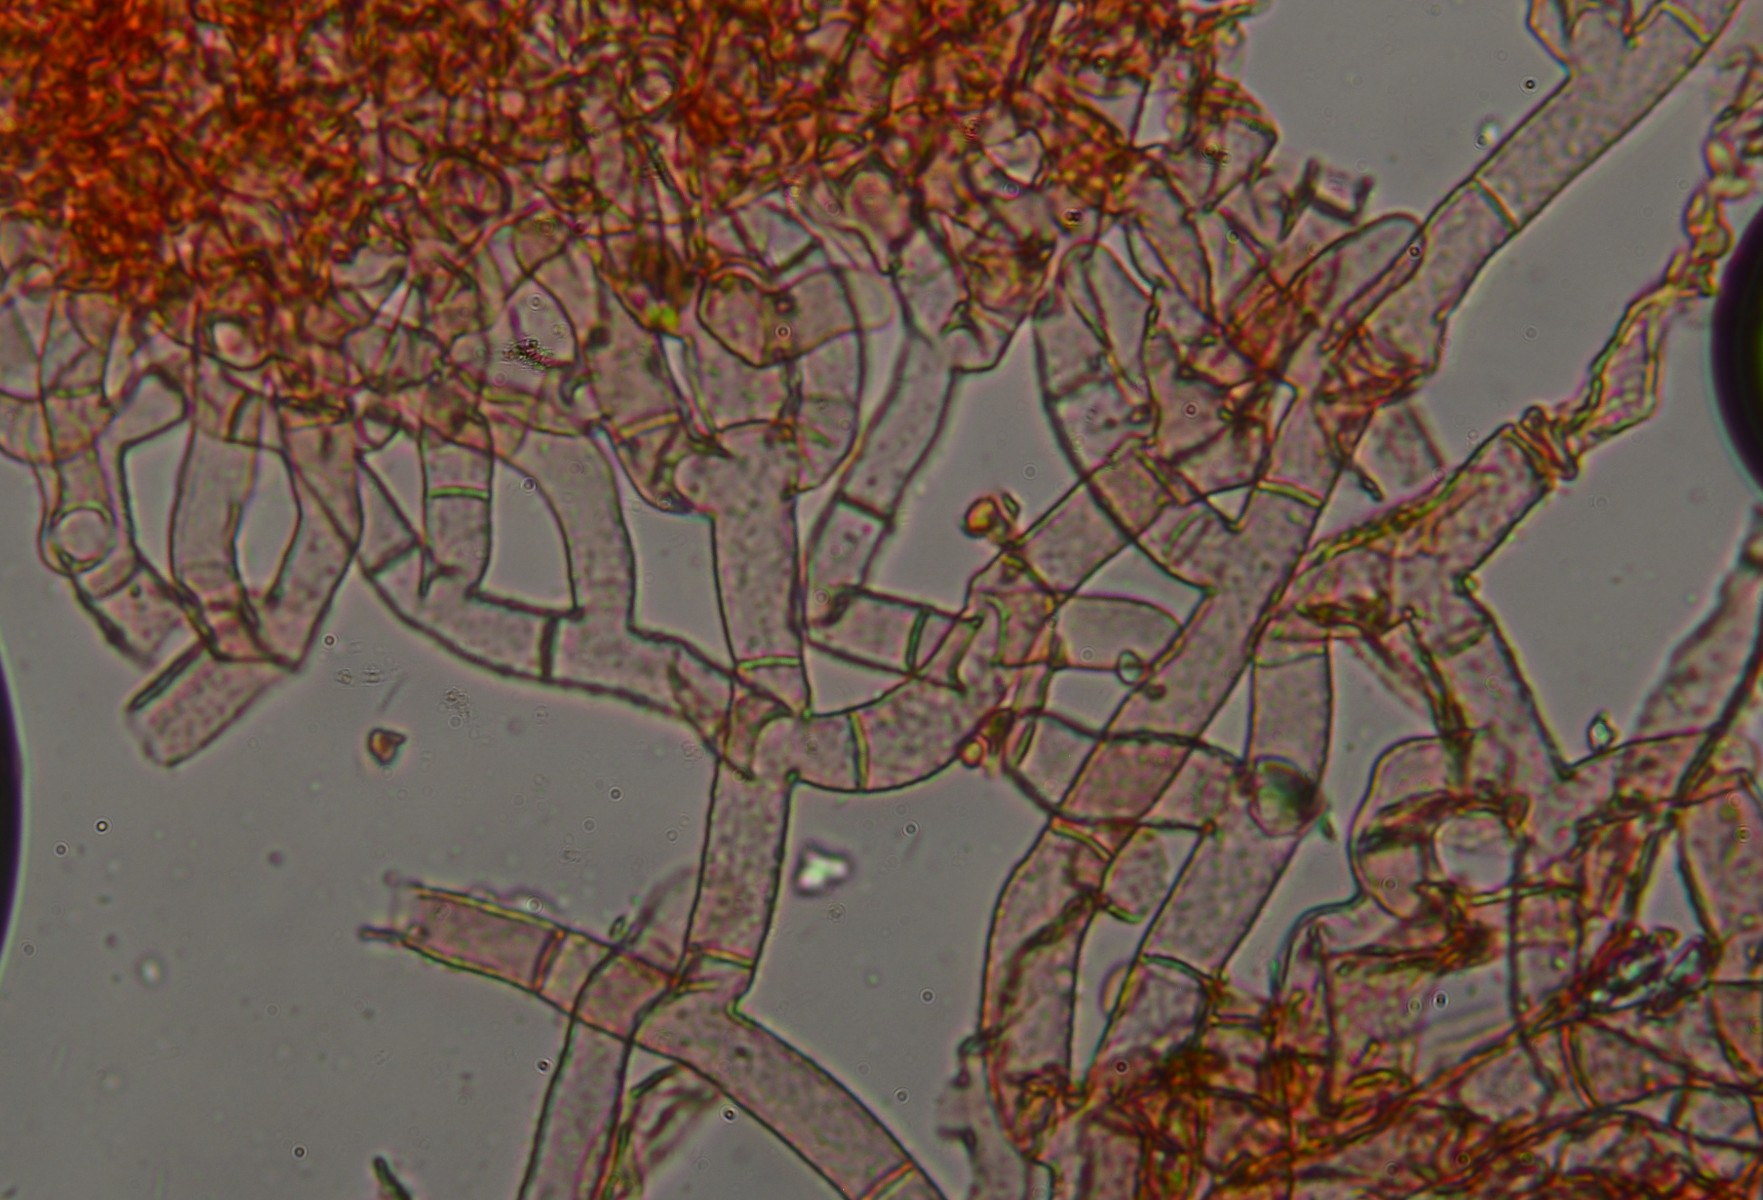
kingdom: Fungi
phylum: Basidiomycota
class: Agaricomycetes
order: Cantharellales
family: Botryobasidiaceae
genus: Botryobasidium
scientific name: Botryobasidium pruinatum
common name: ruhyfet spindhinde
